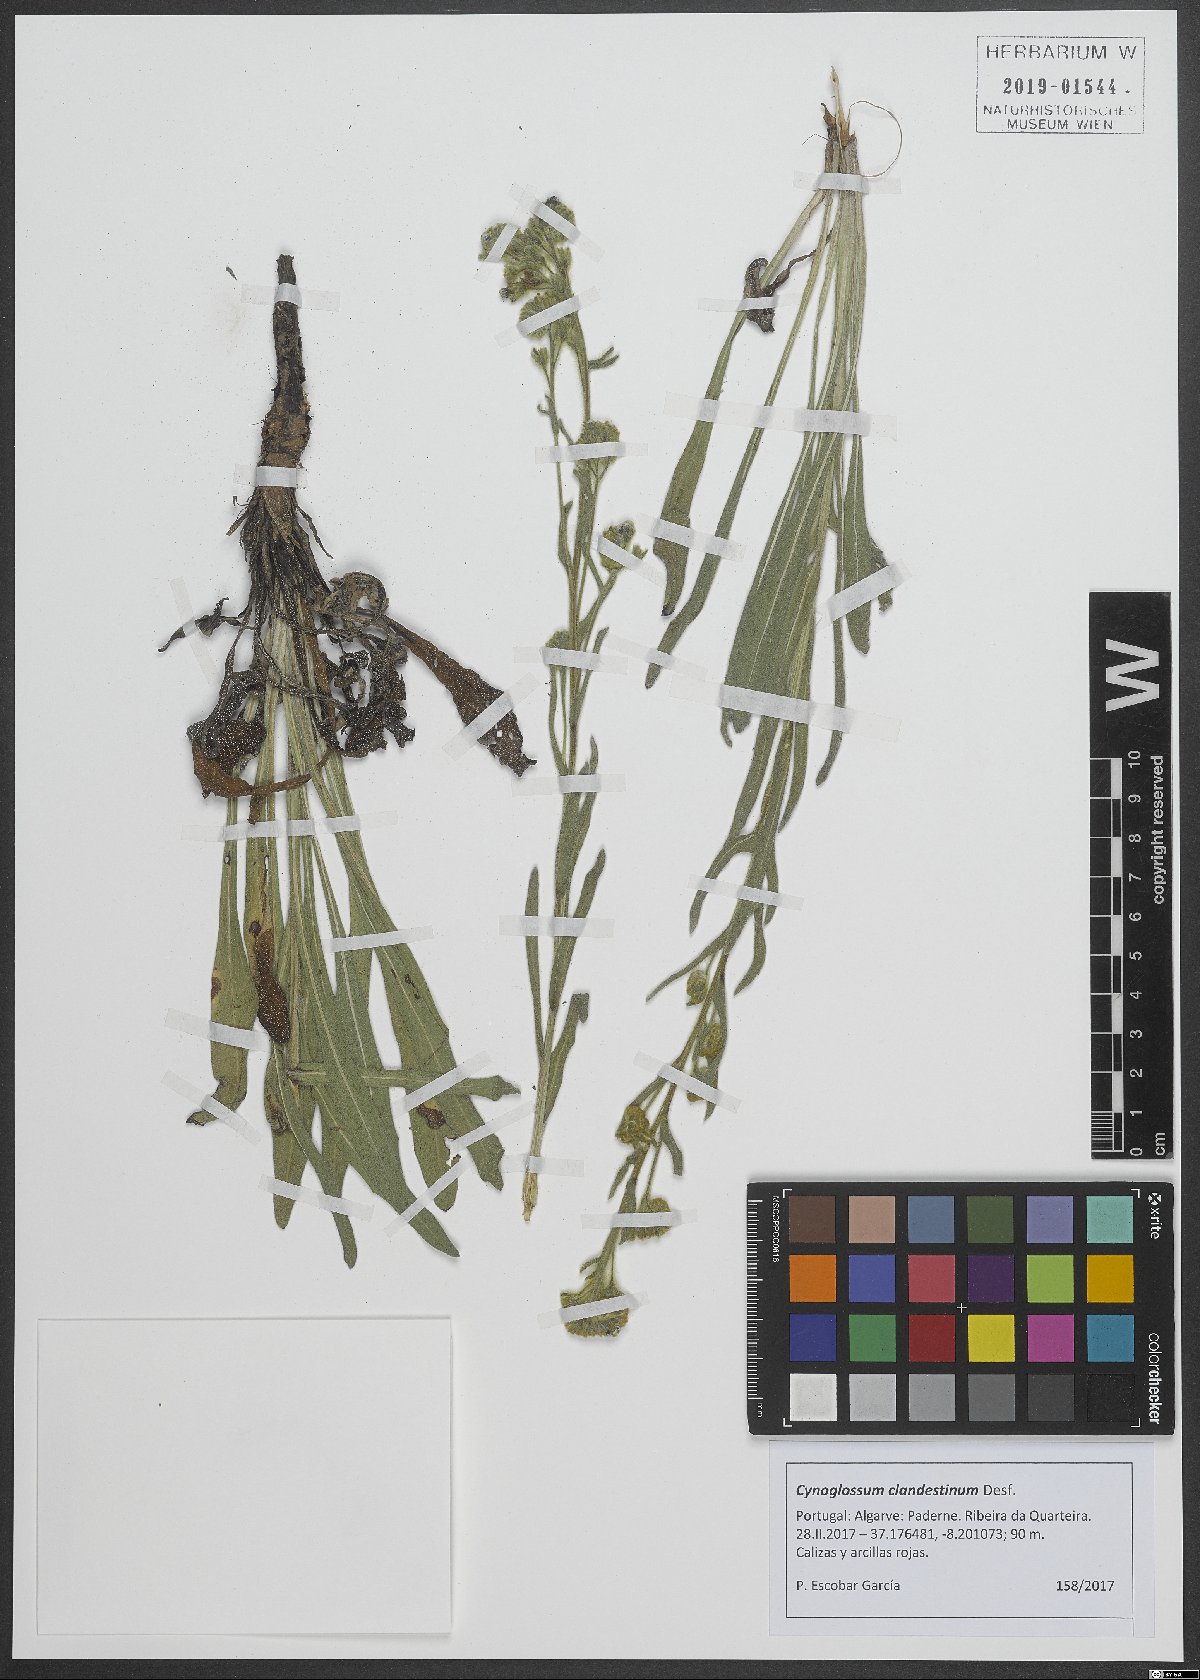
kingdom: Plantae
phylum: Tracheophyta
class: Magnoliopsida
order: Boraginales
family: Boraginaceae
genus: Cynoglossum
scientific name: Cynoglossum clandestinum
